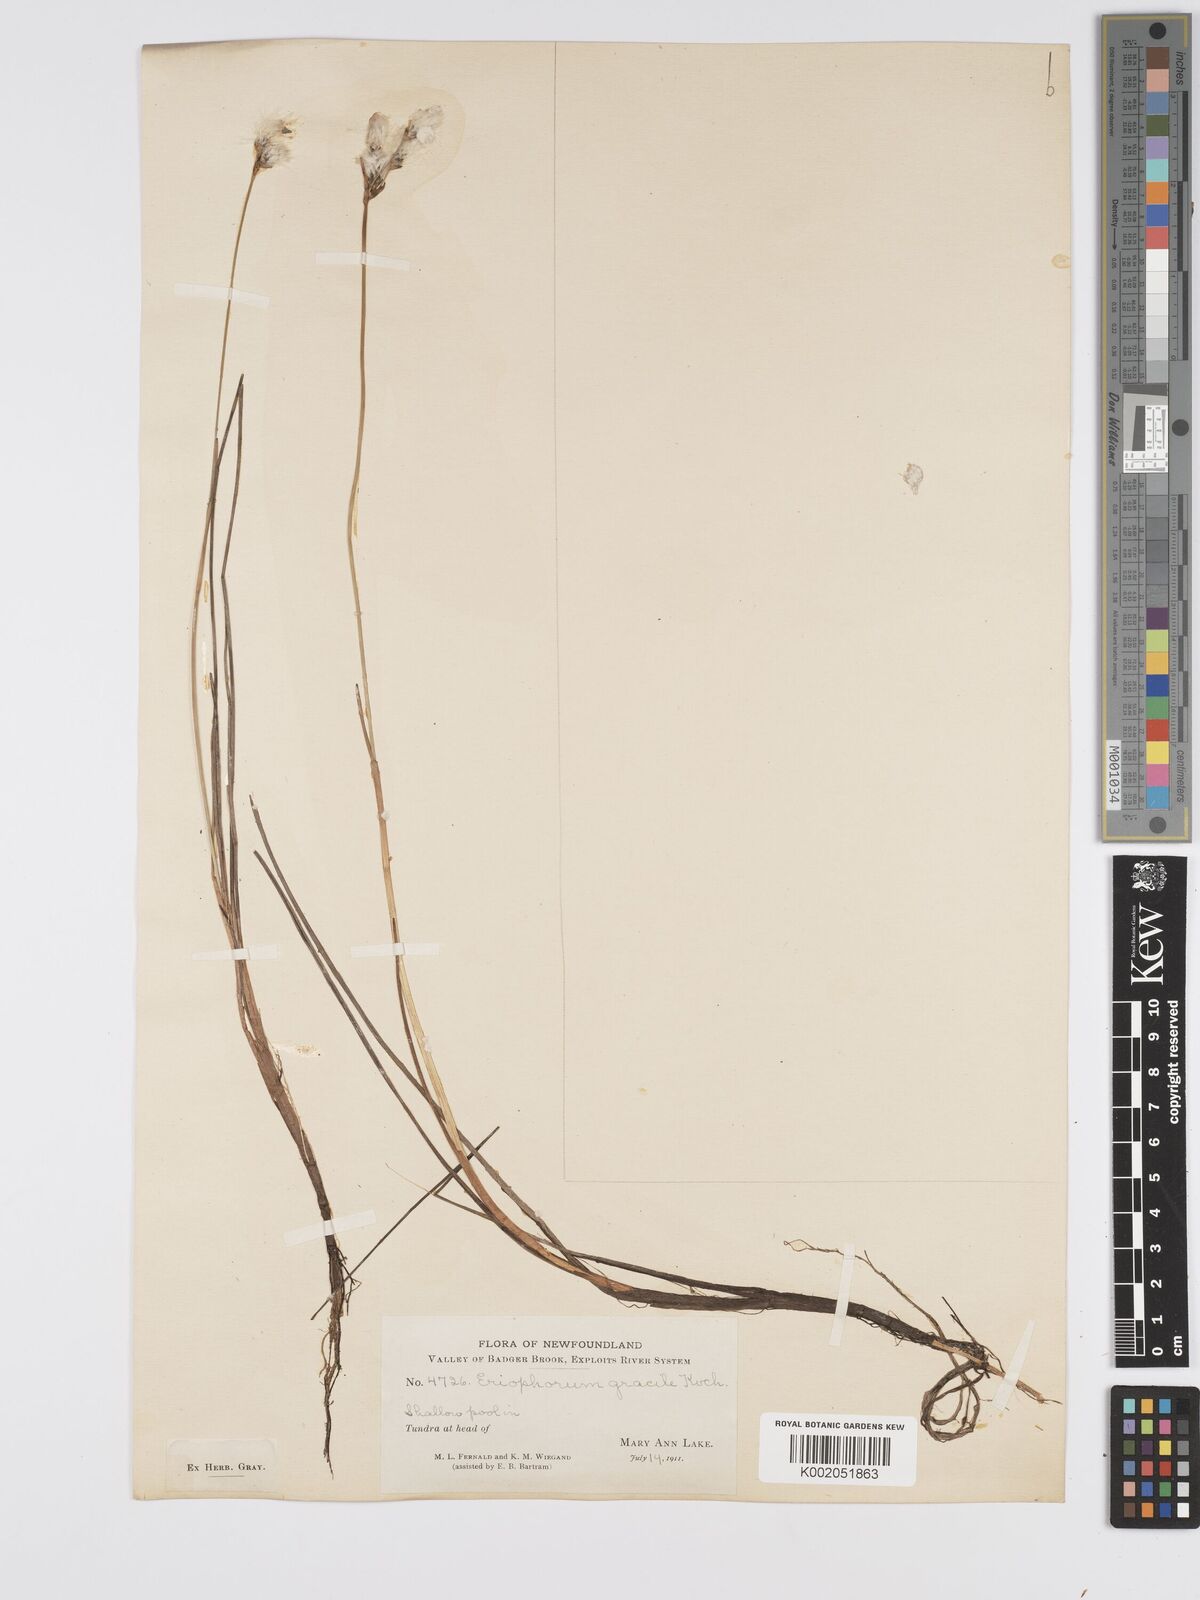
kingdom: Plantae
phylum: Tracheophyta
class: Liliopsida
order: Poales
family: Cyperaceae
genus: Eriophorum
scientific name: Eriophorum gracile
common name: Slender cottongrass
